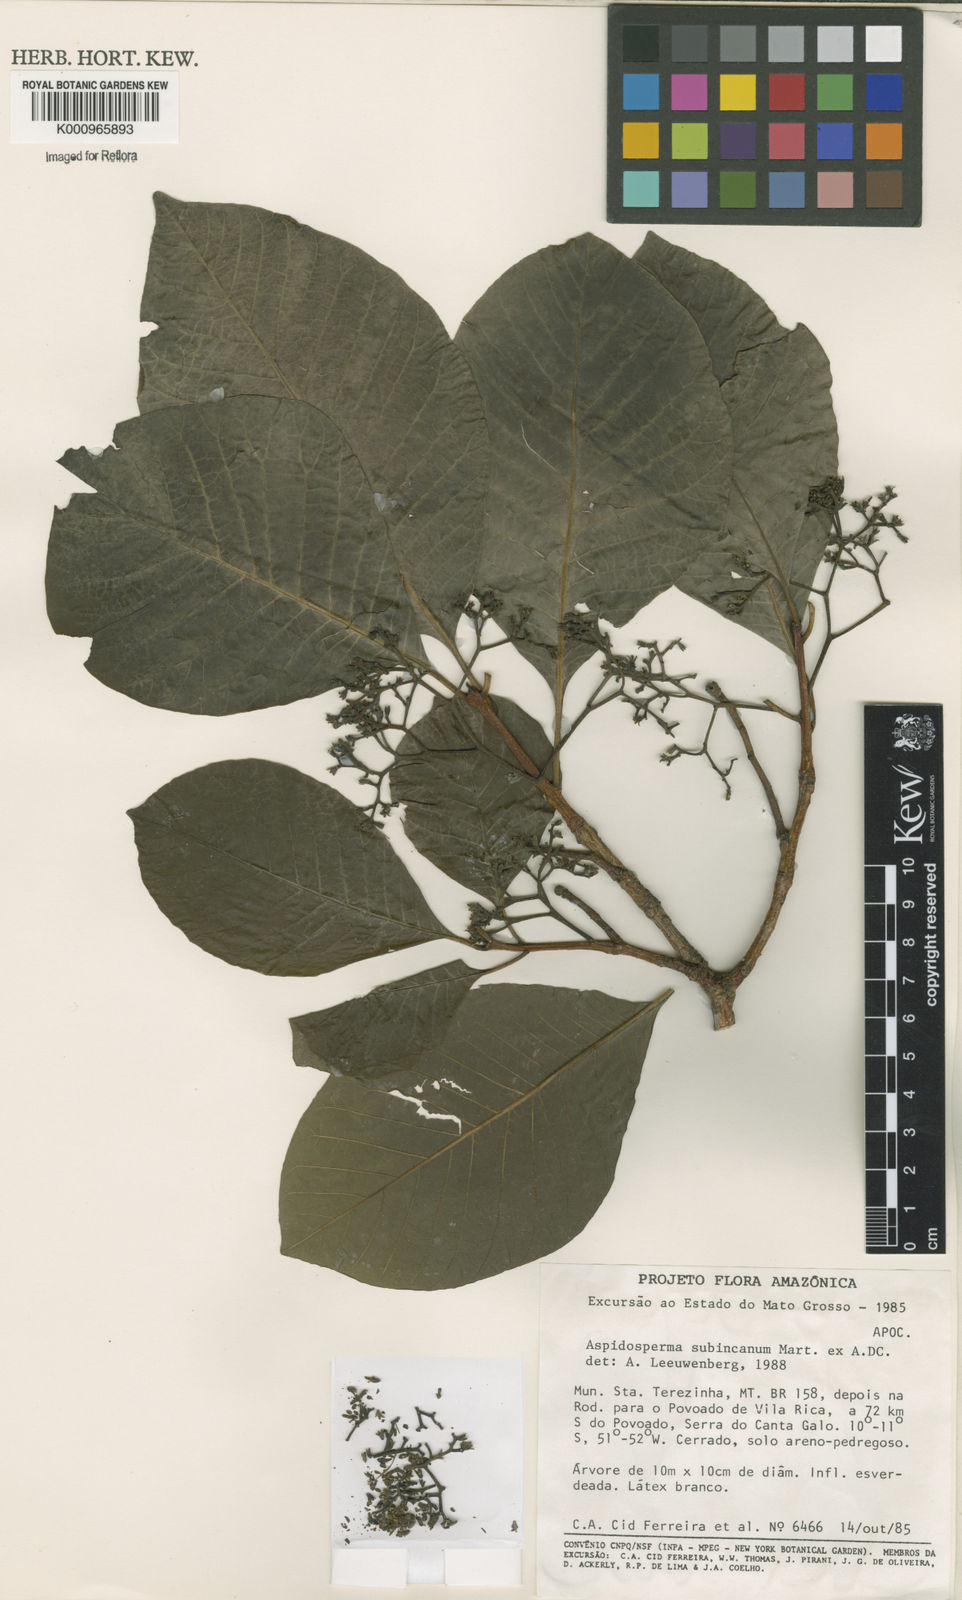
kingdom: Plantae
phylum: Tracheophyta
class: Magnoliopsida
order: Gentianales
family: Apocynaceae
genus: Aspidosperma
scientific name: Aspidosperma subincanum
